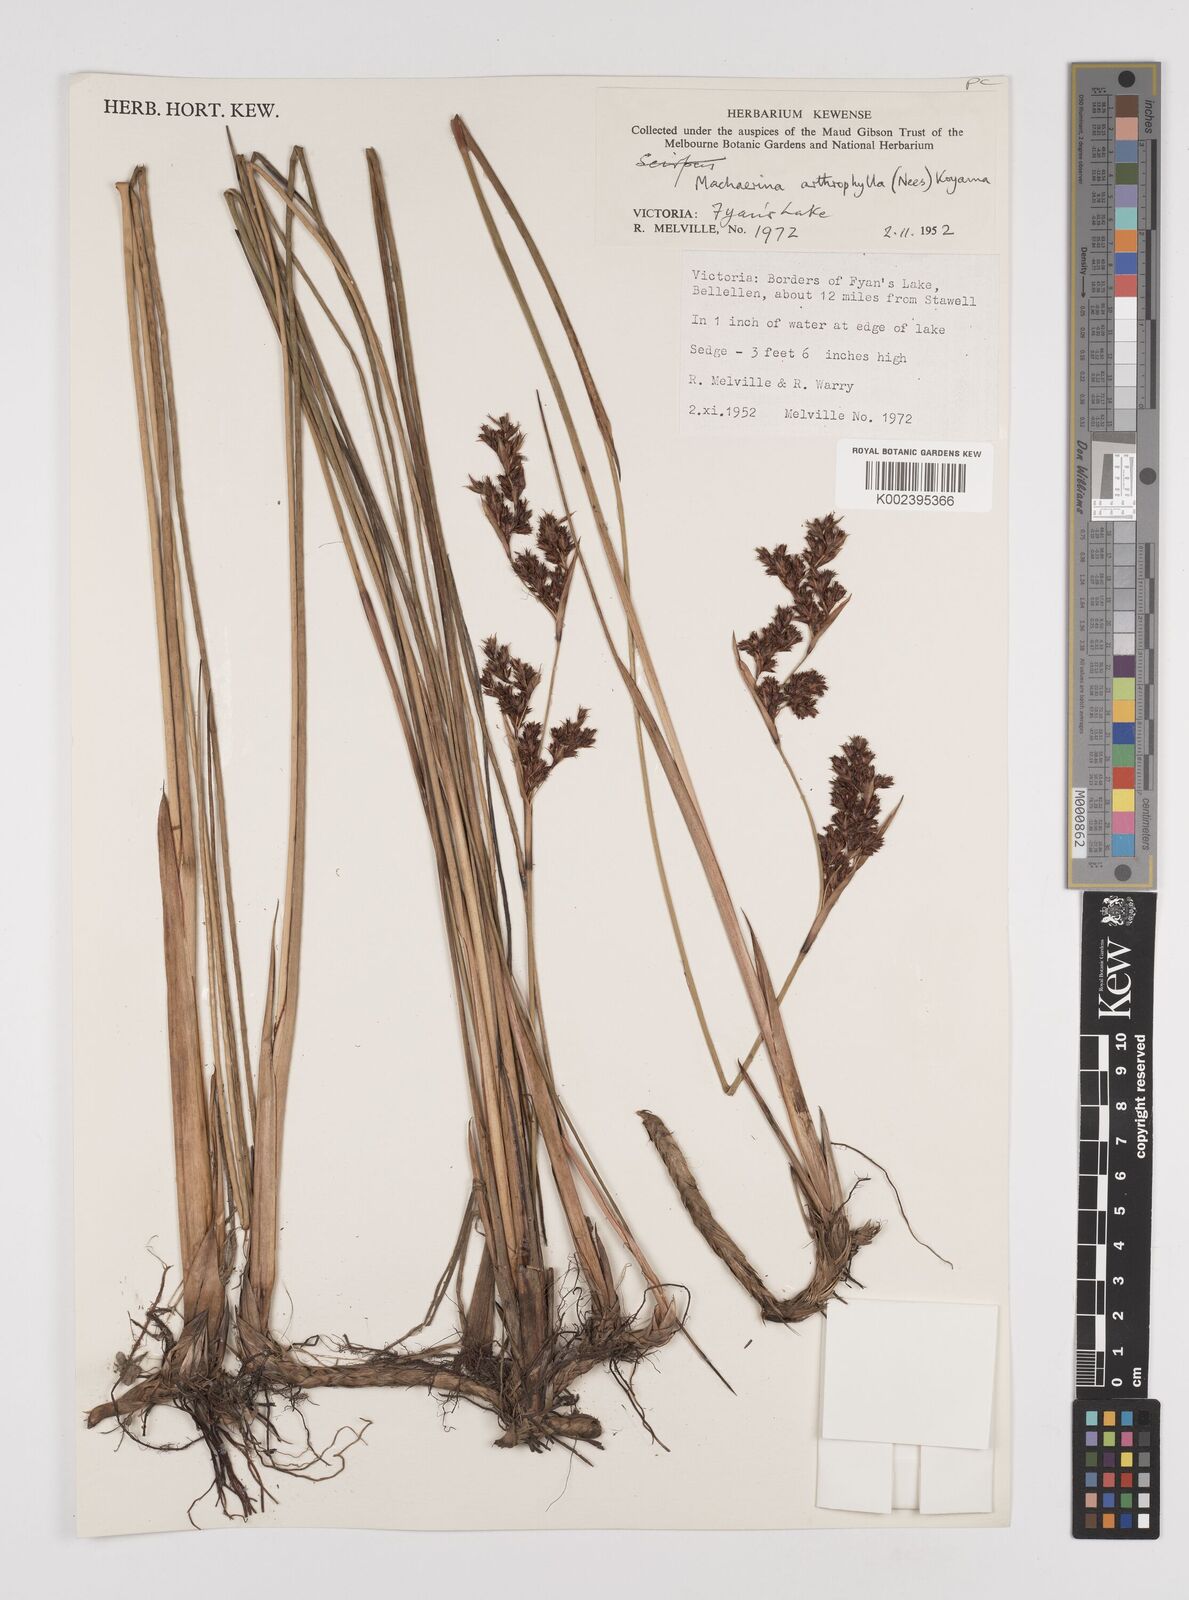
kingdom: Plantae
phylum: Tracheophyta
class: Liliopsida
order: Poales
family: Cyperaceae
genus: Machaerina
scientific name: Machaerina arthrophylla
